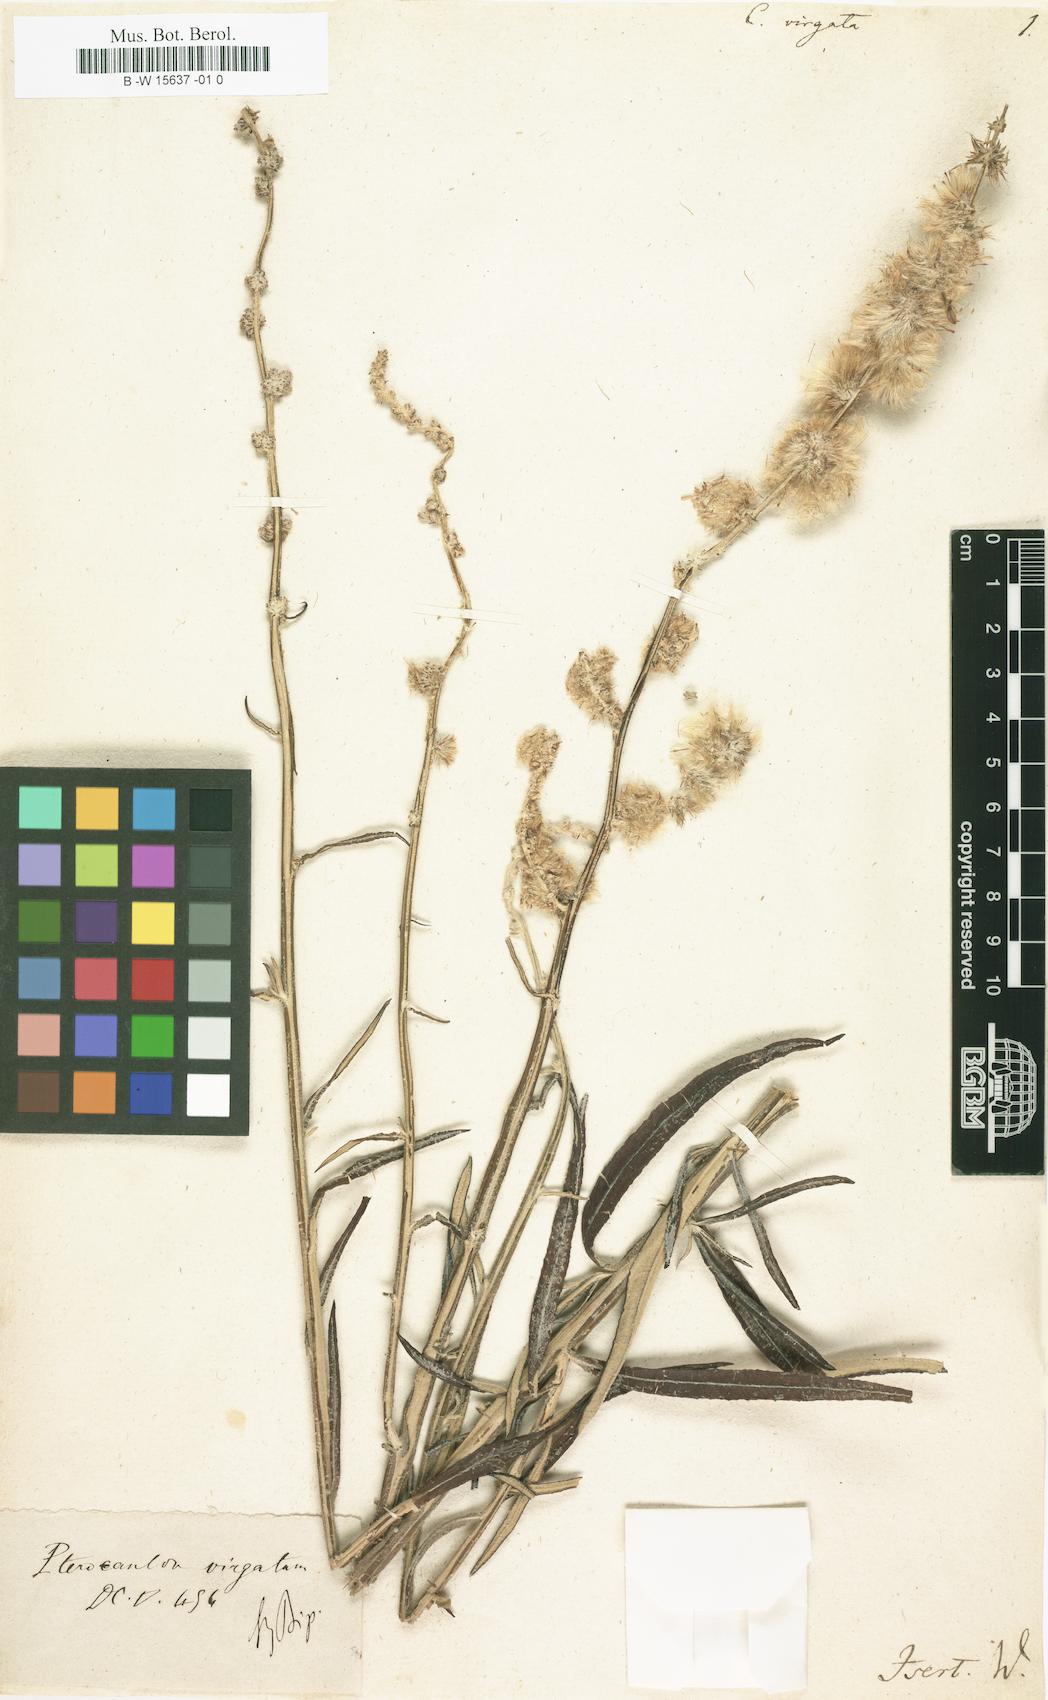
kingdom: Plantae
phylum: Tracheophyta
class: Magnoliopsida
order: Asterales
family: Asteraceae
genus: Pterocaulon
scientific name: Pterocaulon virgatum
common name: Wand blackroot
